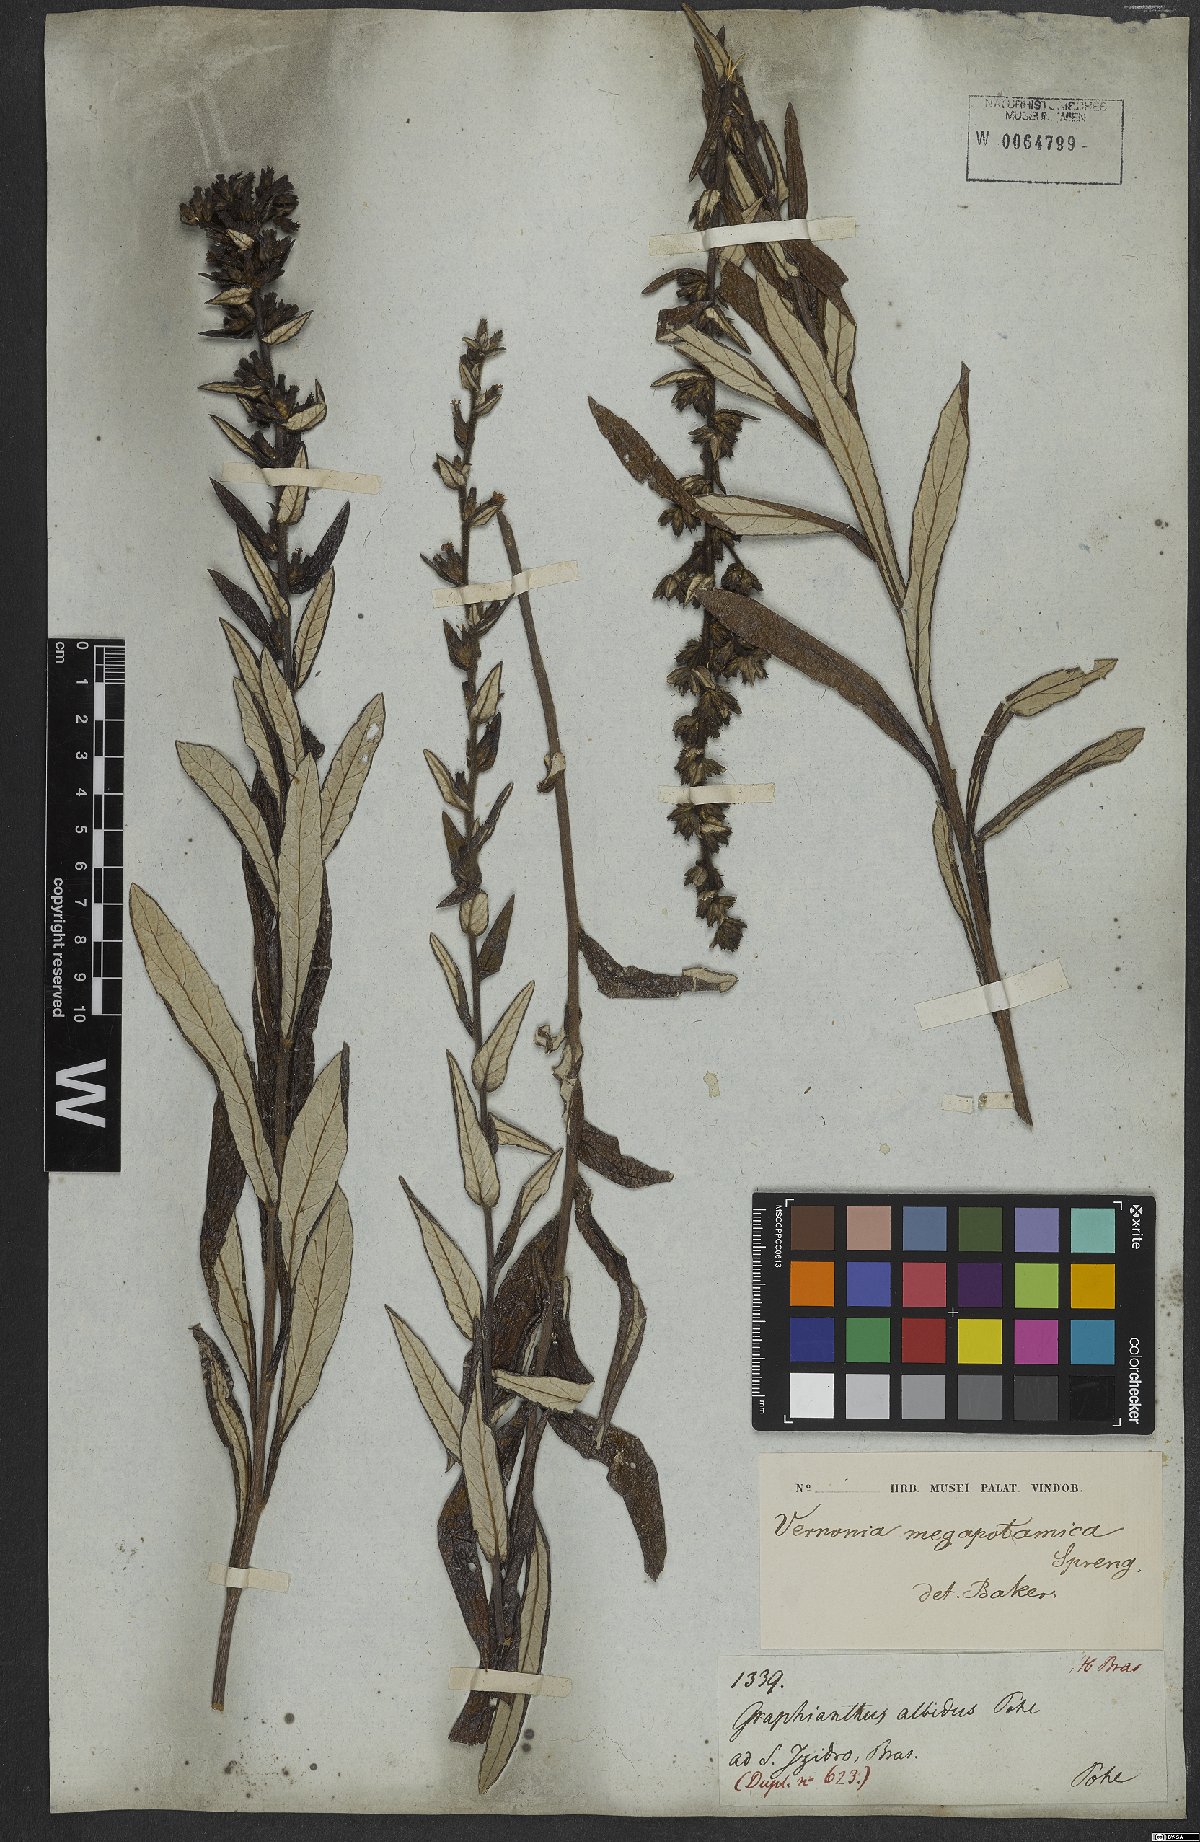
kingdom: Plantae
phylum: Tracheophyta
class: Magnoliopsida
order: Asterales
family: Asteraceae
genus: Stenocephalum
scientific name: Stenocephalum megapotamicum
